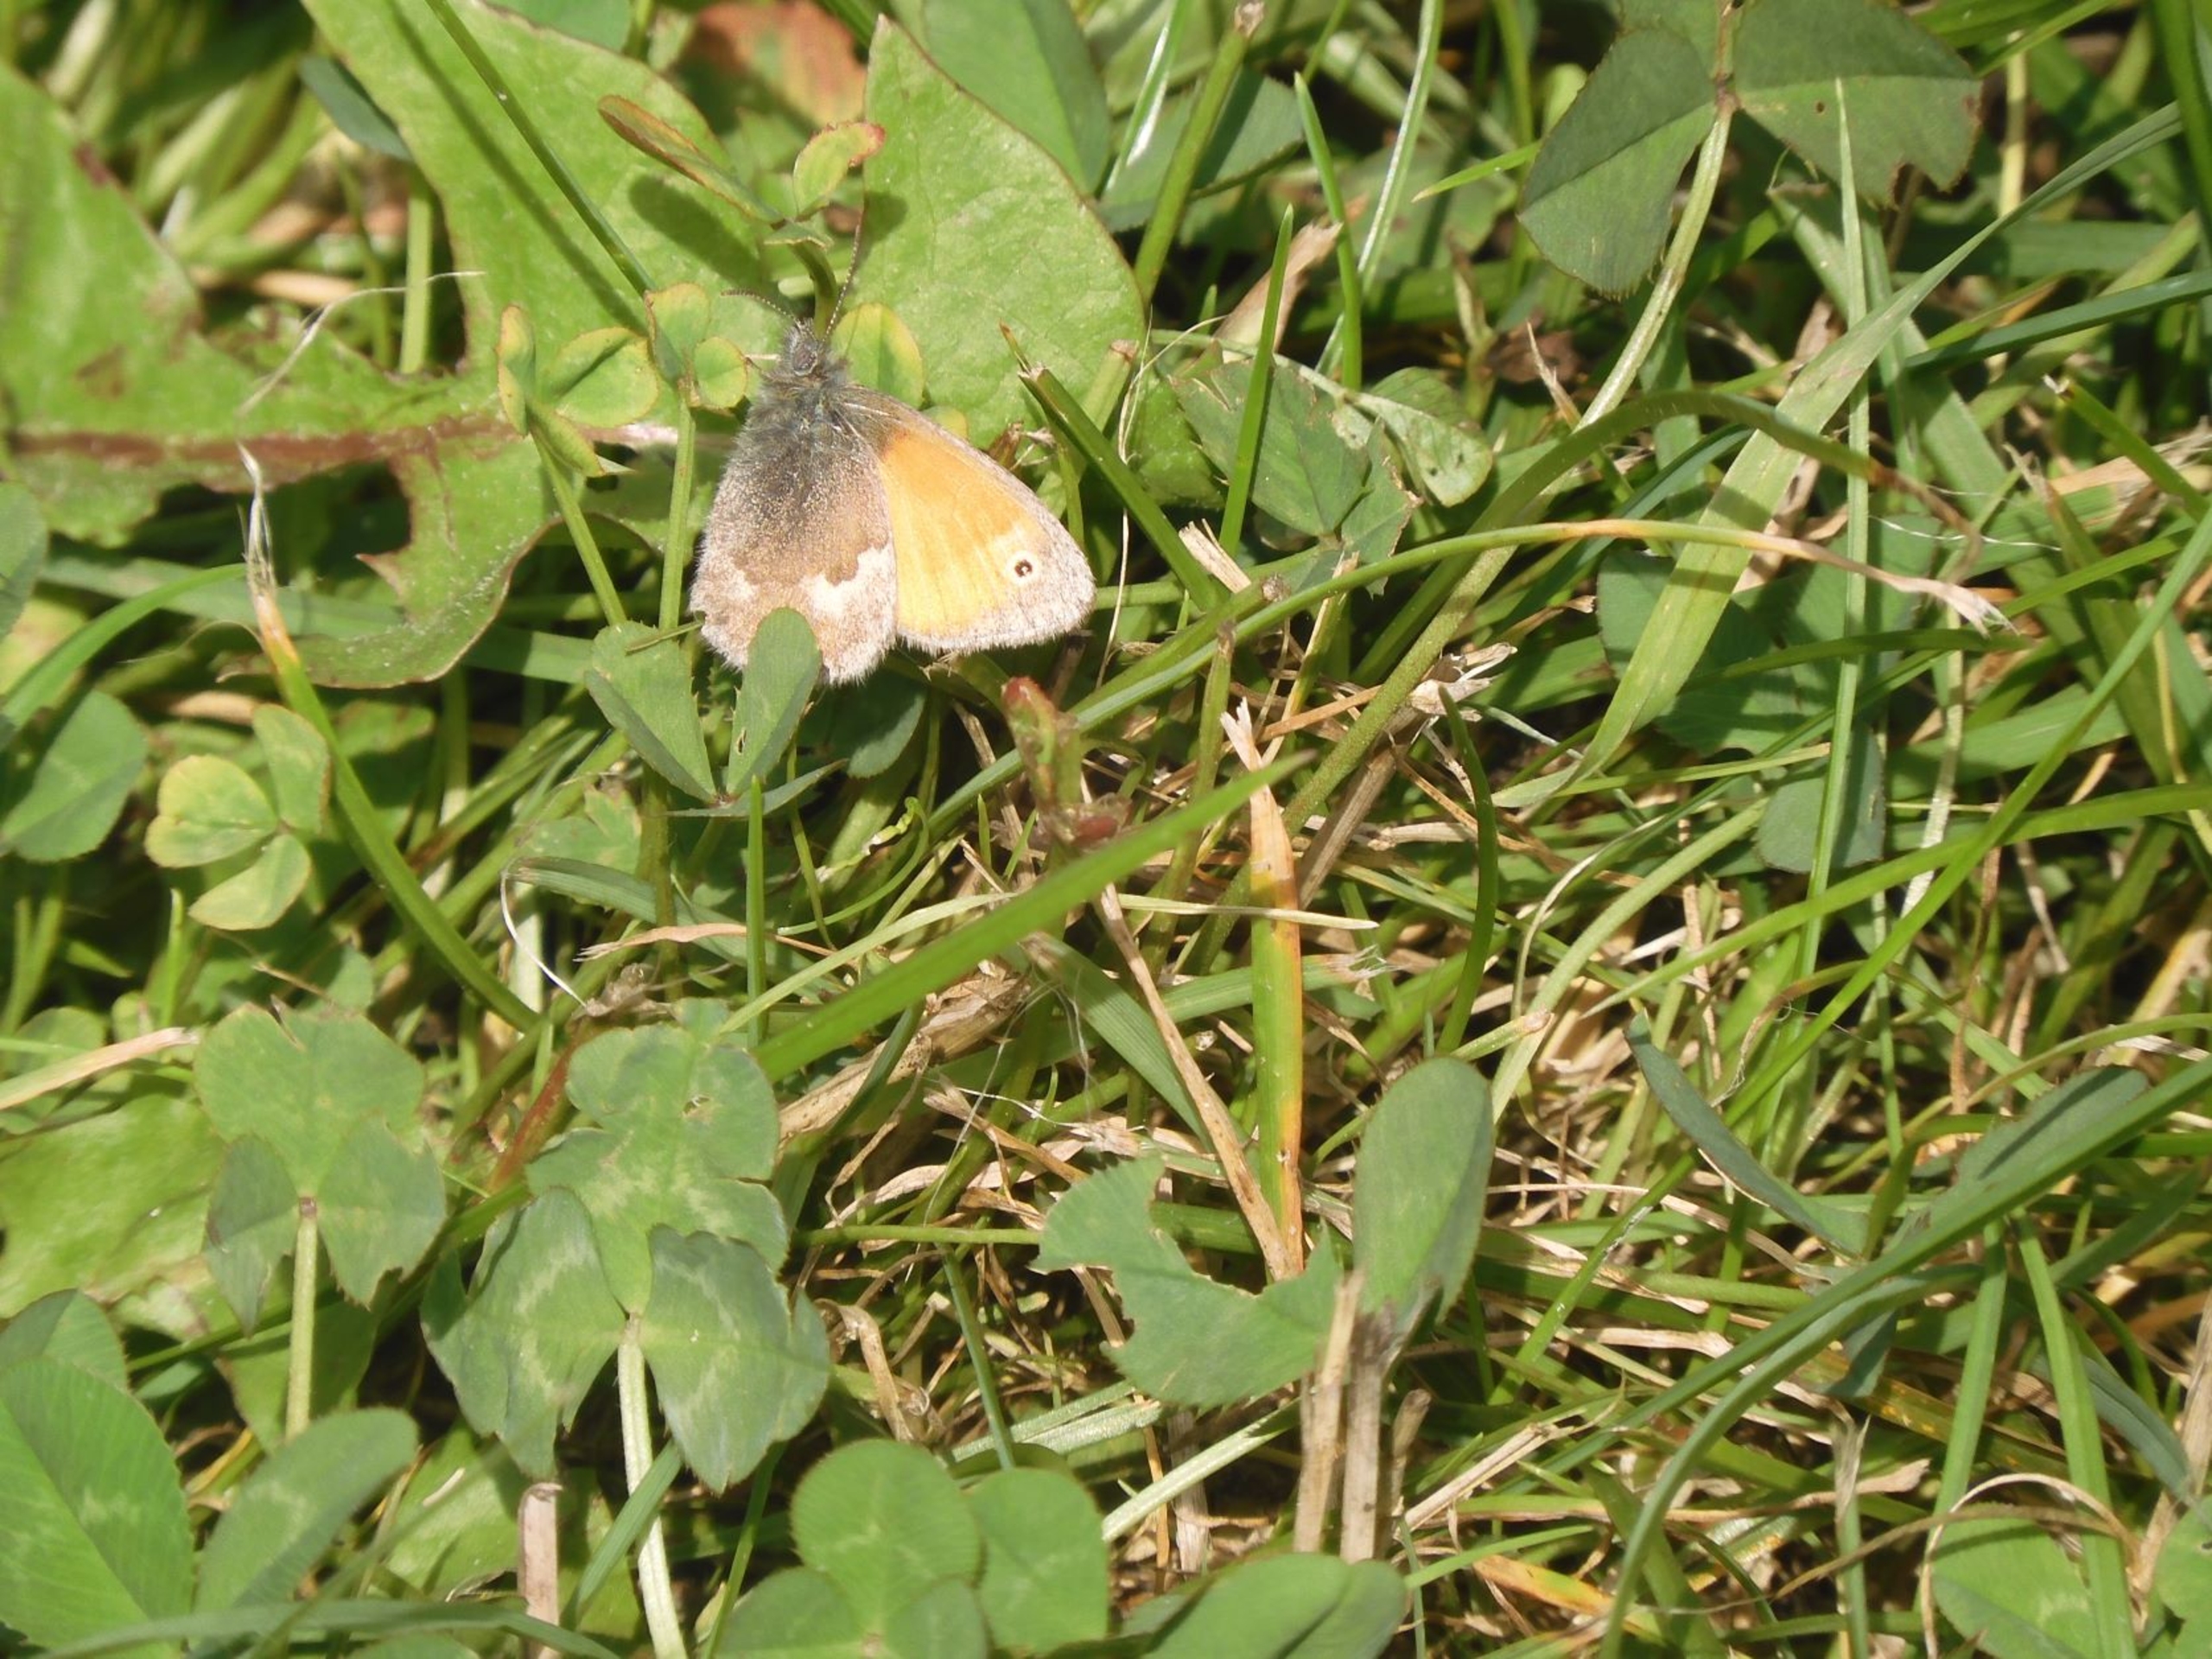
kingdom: Animalia
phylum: Arthropoda
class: Insecta
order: Lepidoptera
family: Nymphalidae
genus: Coenonympha
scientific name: Coenonympha pamphilus
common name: Okkergul randøje
